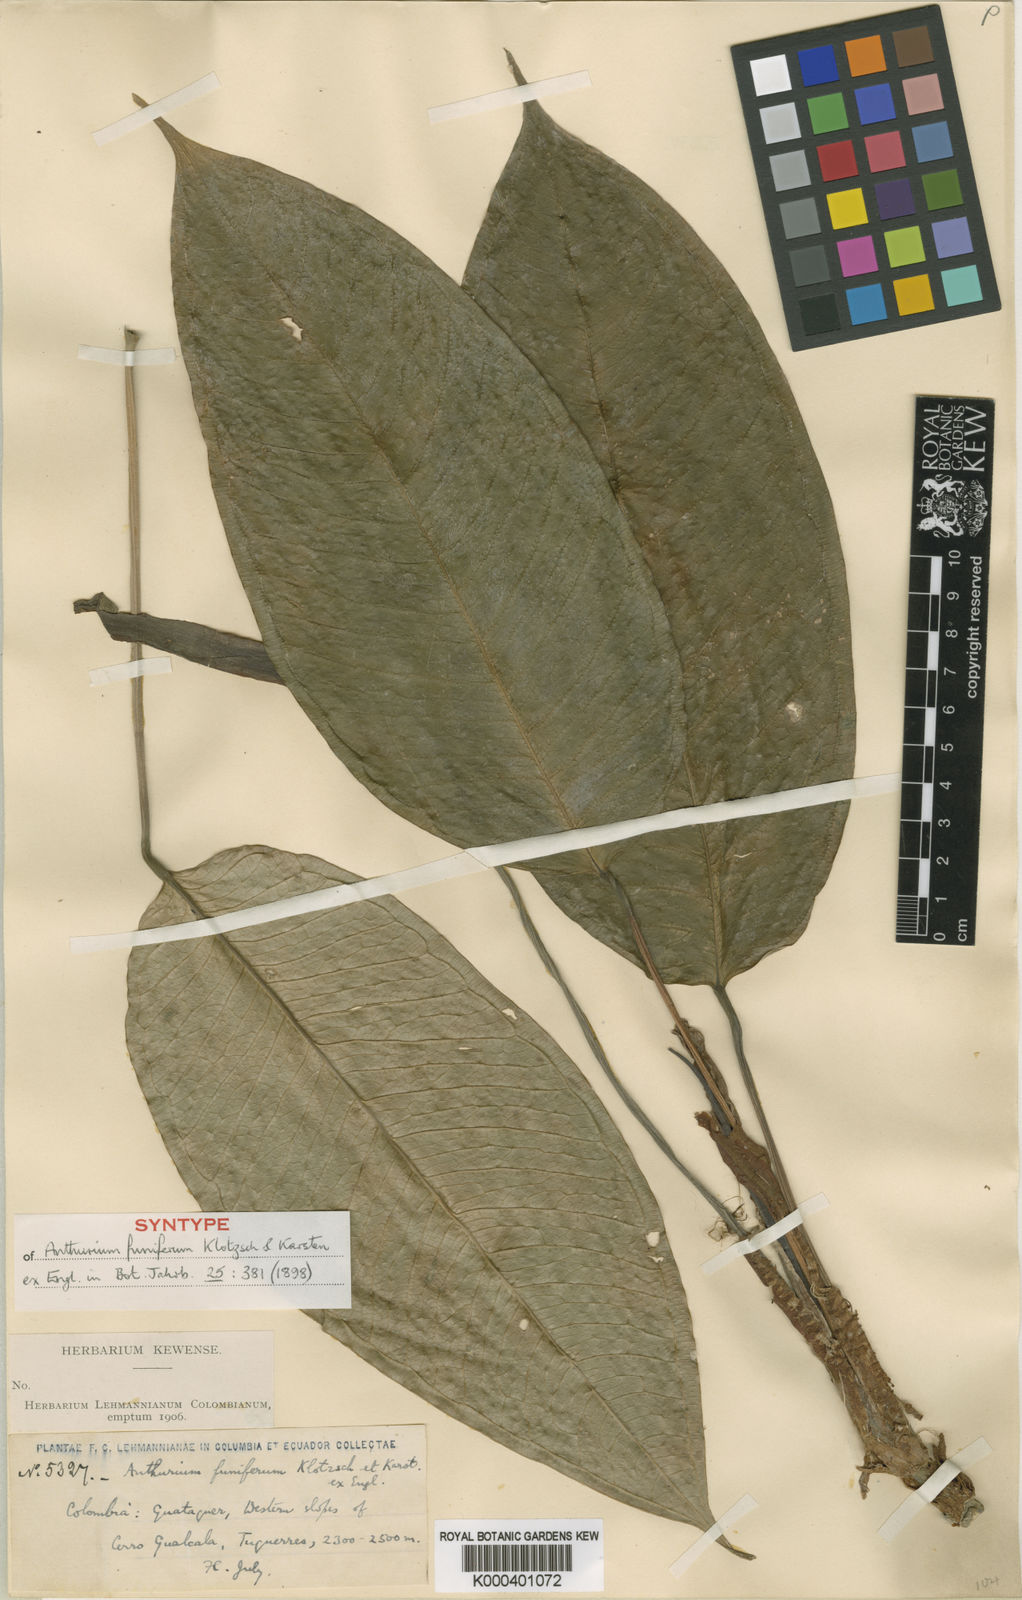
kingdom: Plantae
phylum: Tracheophyta
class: Liliopsida
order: Alismatales
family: Araceae
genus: Anthurium
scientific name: Anthurium
